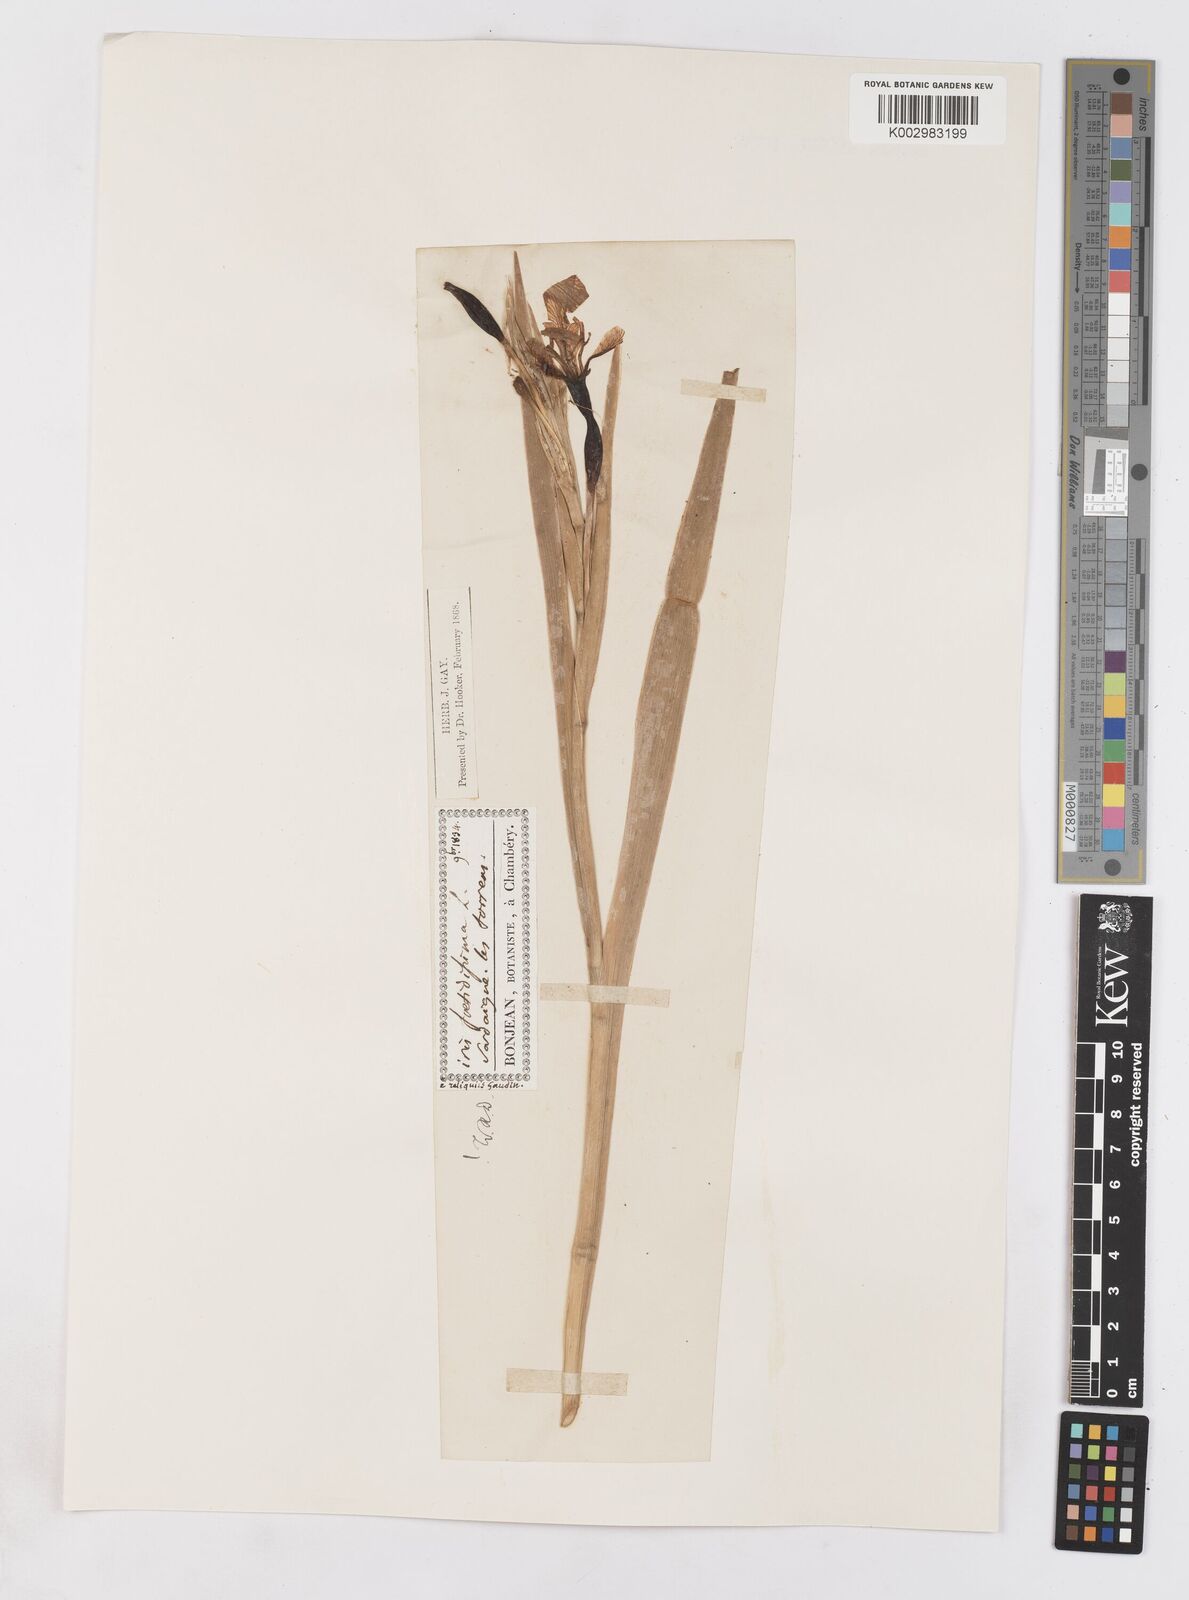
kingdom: Plantae
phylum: Tracheophyta
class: Liliopsida
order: Asparagales
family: Iridaceae
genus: Iris
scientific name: Iris foetidissima
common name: Stinking iris
